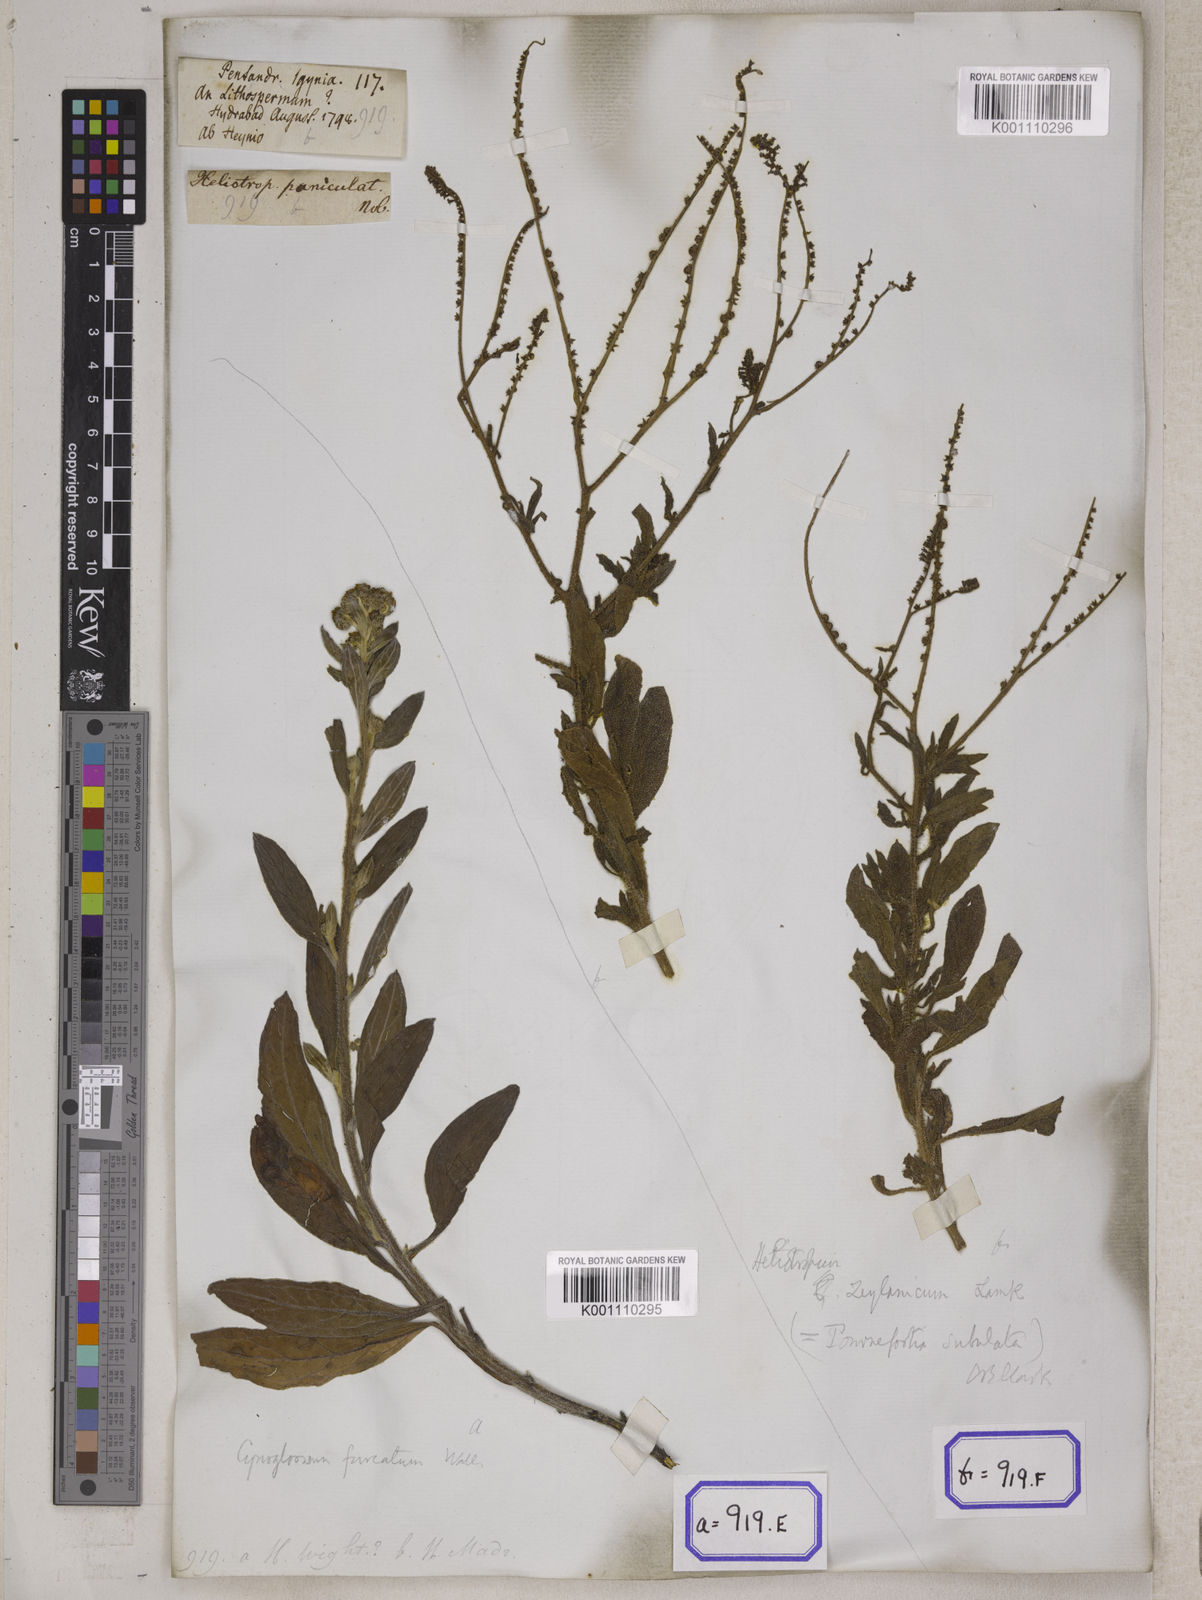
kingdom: Plantae
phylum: Tracheophyta
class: Magnoliopsida
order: Boraginales
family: Boraginaceae
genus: Rochelia
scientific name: Rochelia zeylanica
